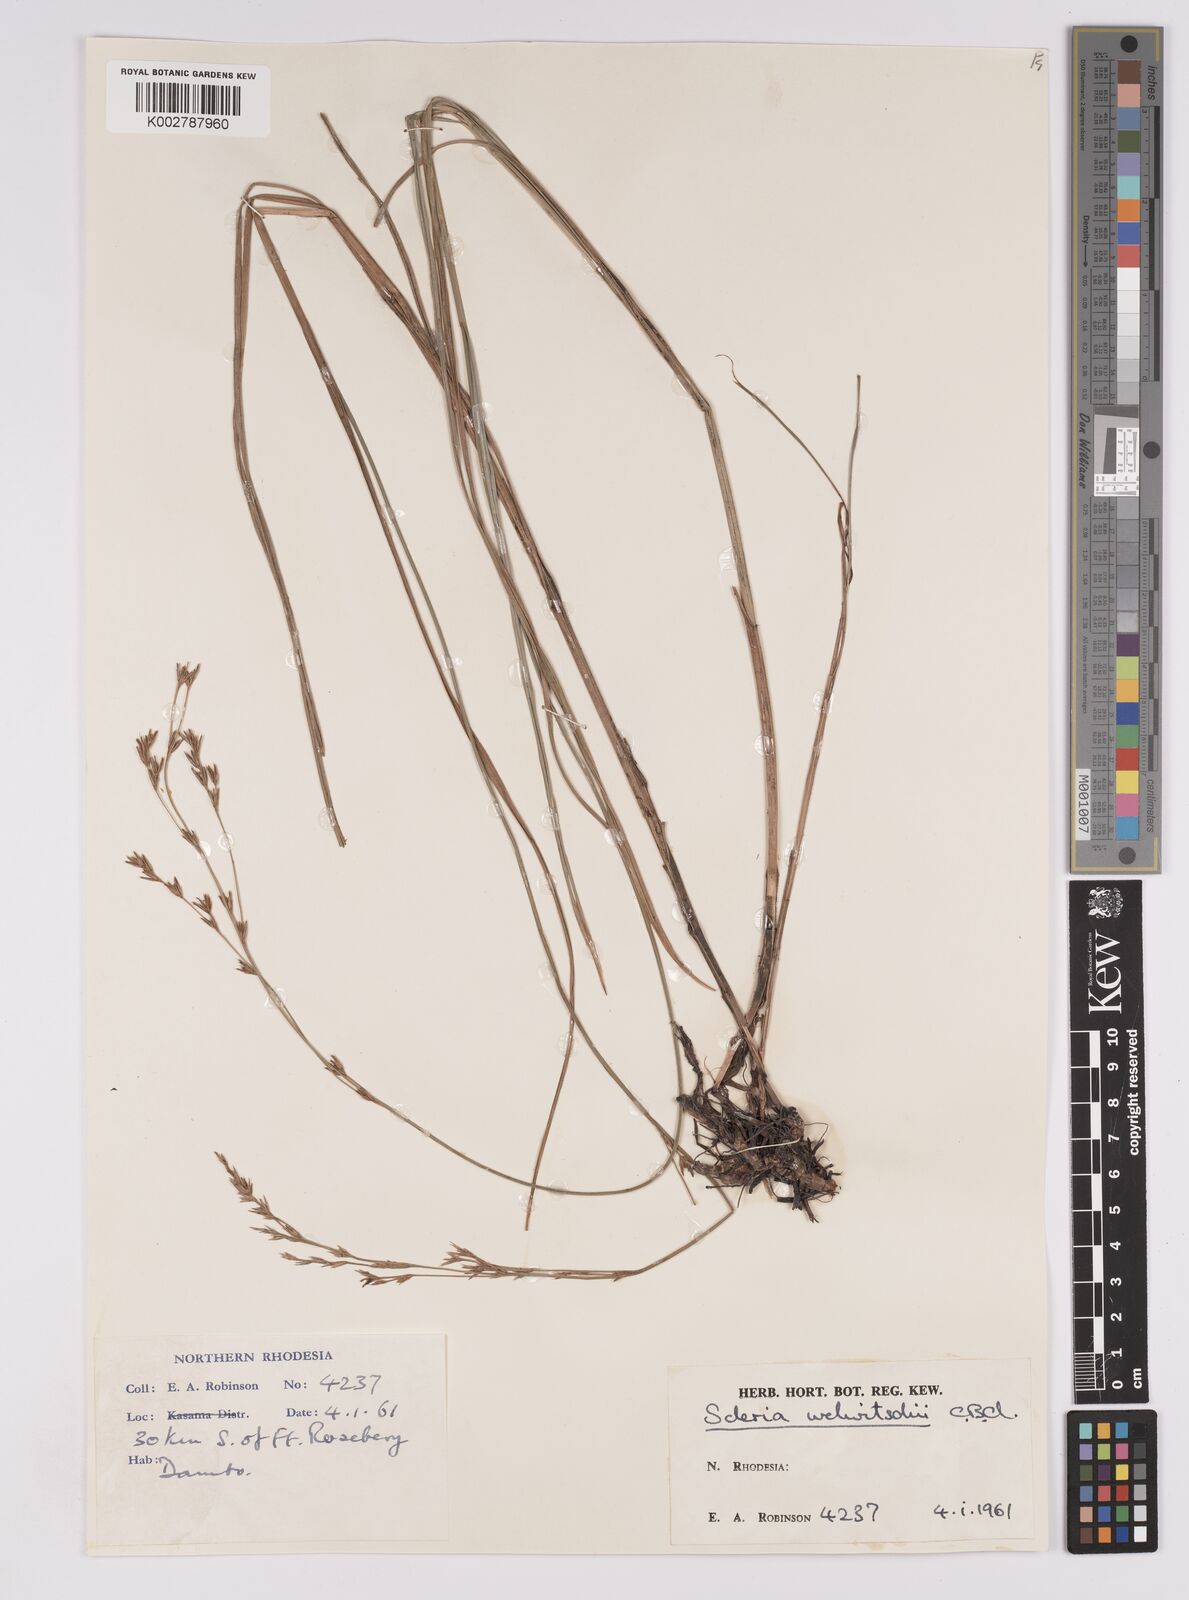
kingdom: Plantae
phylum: Tracheophyta
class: Liliopsida
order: Poales
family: Cyperaceae
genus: Scleria
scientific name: Scleria welwitschii
